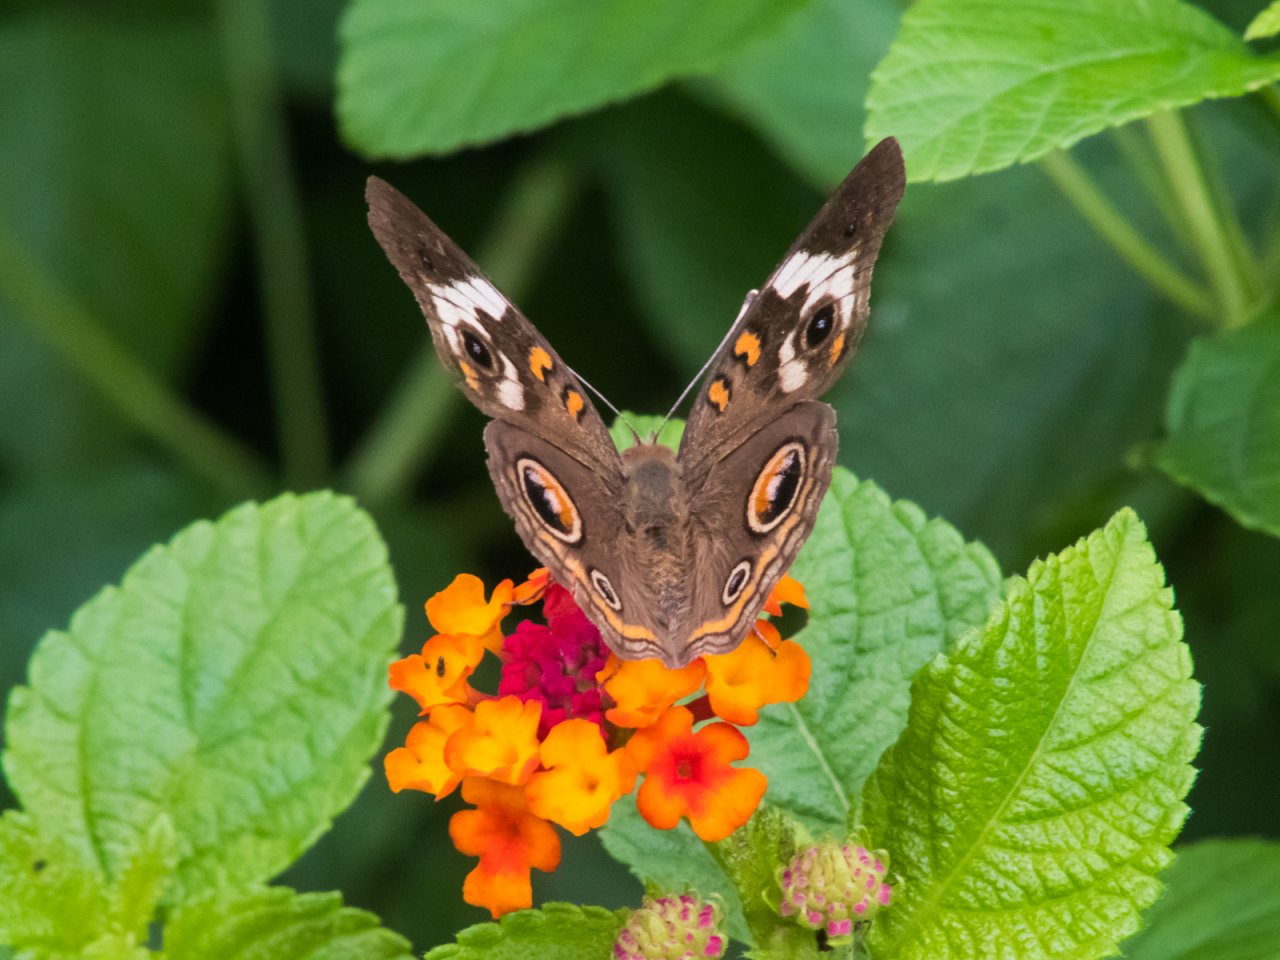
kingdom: Animalia
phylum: Arthropoda
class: Insecta
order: Lepidoptera
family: Nymphalidae
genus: Junonia
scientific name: Junonia coenia
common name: Common Buckeye
